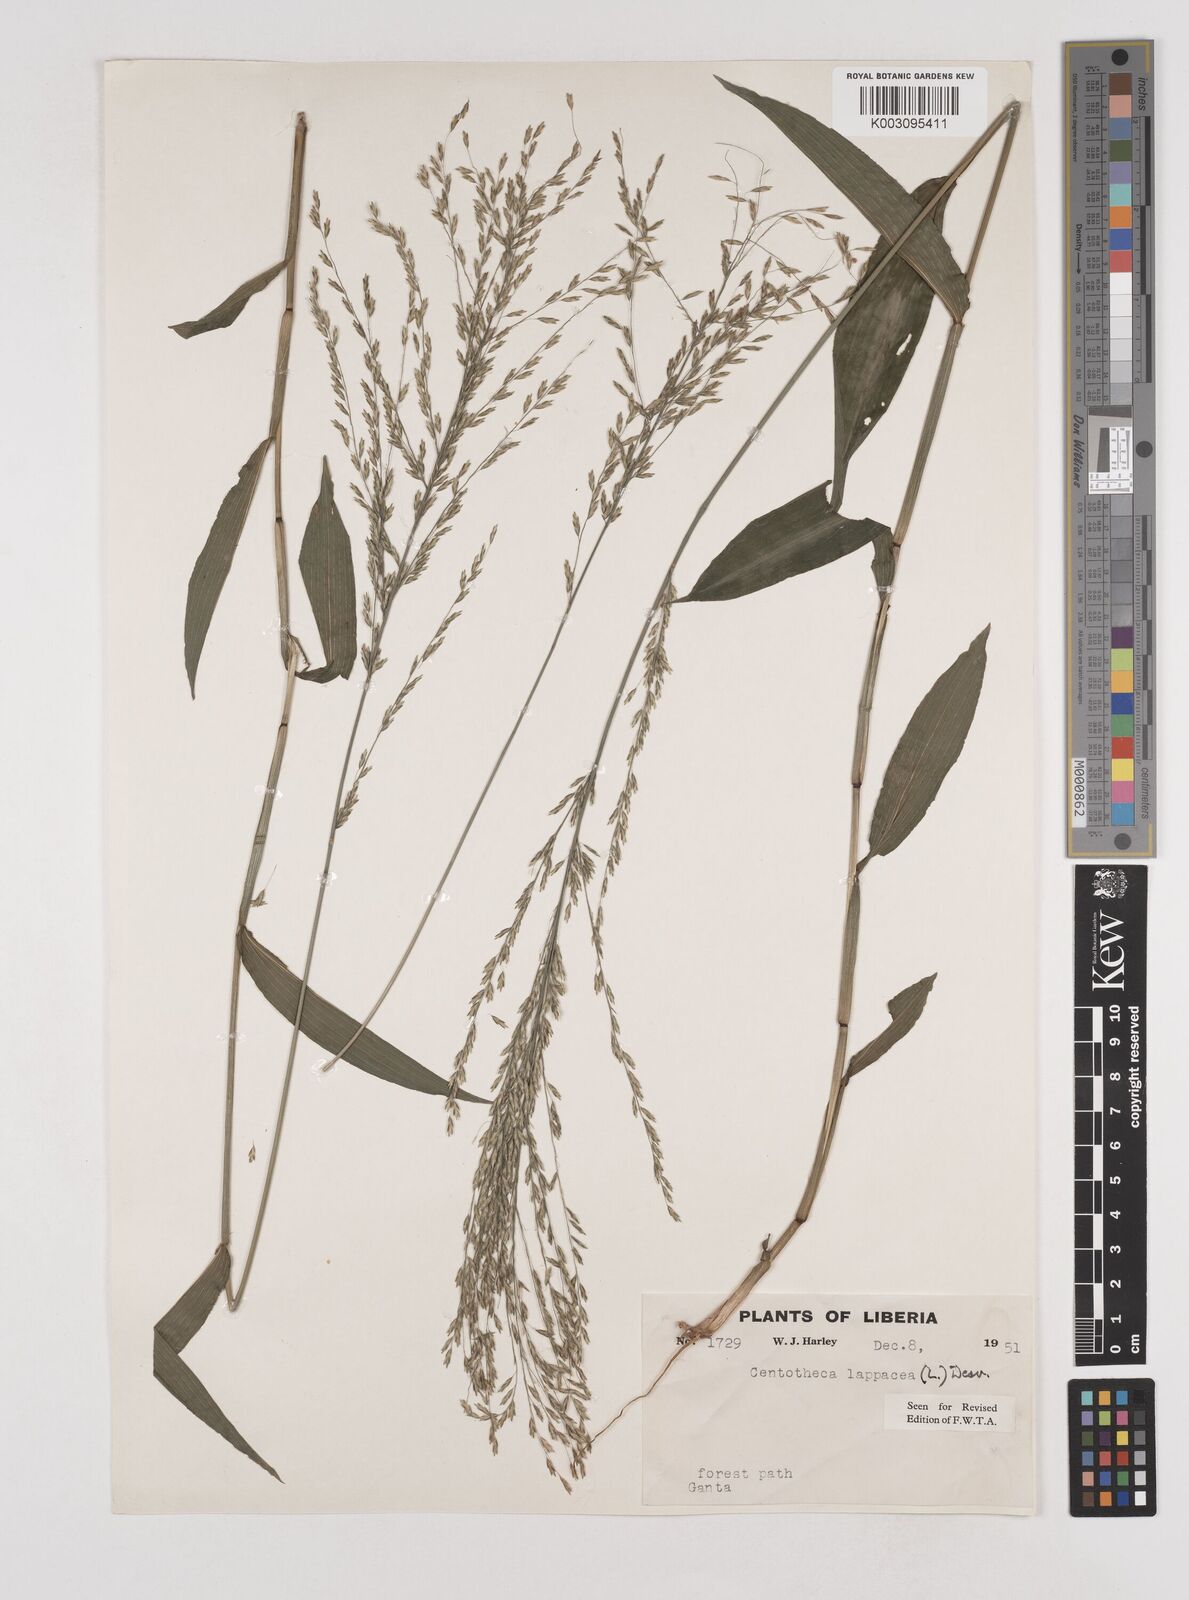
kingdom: Plantae
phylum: Tracheophyta
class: Liliopsida
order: Poales
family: Poaceae
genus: Centotheca
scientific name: Centotheca lappacea
